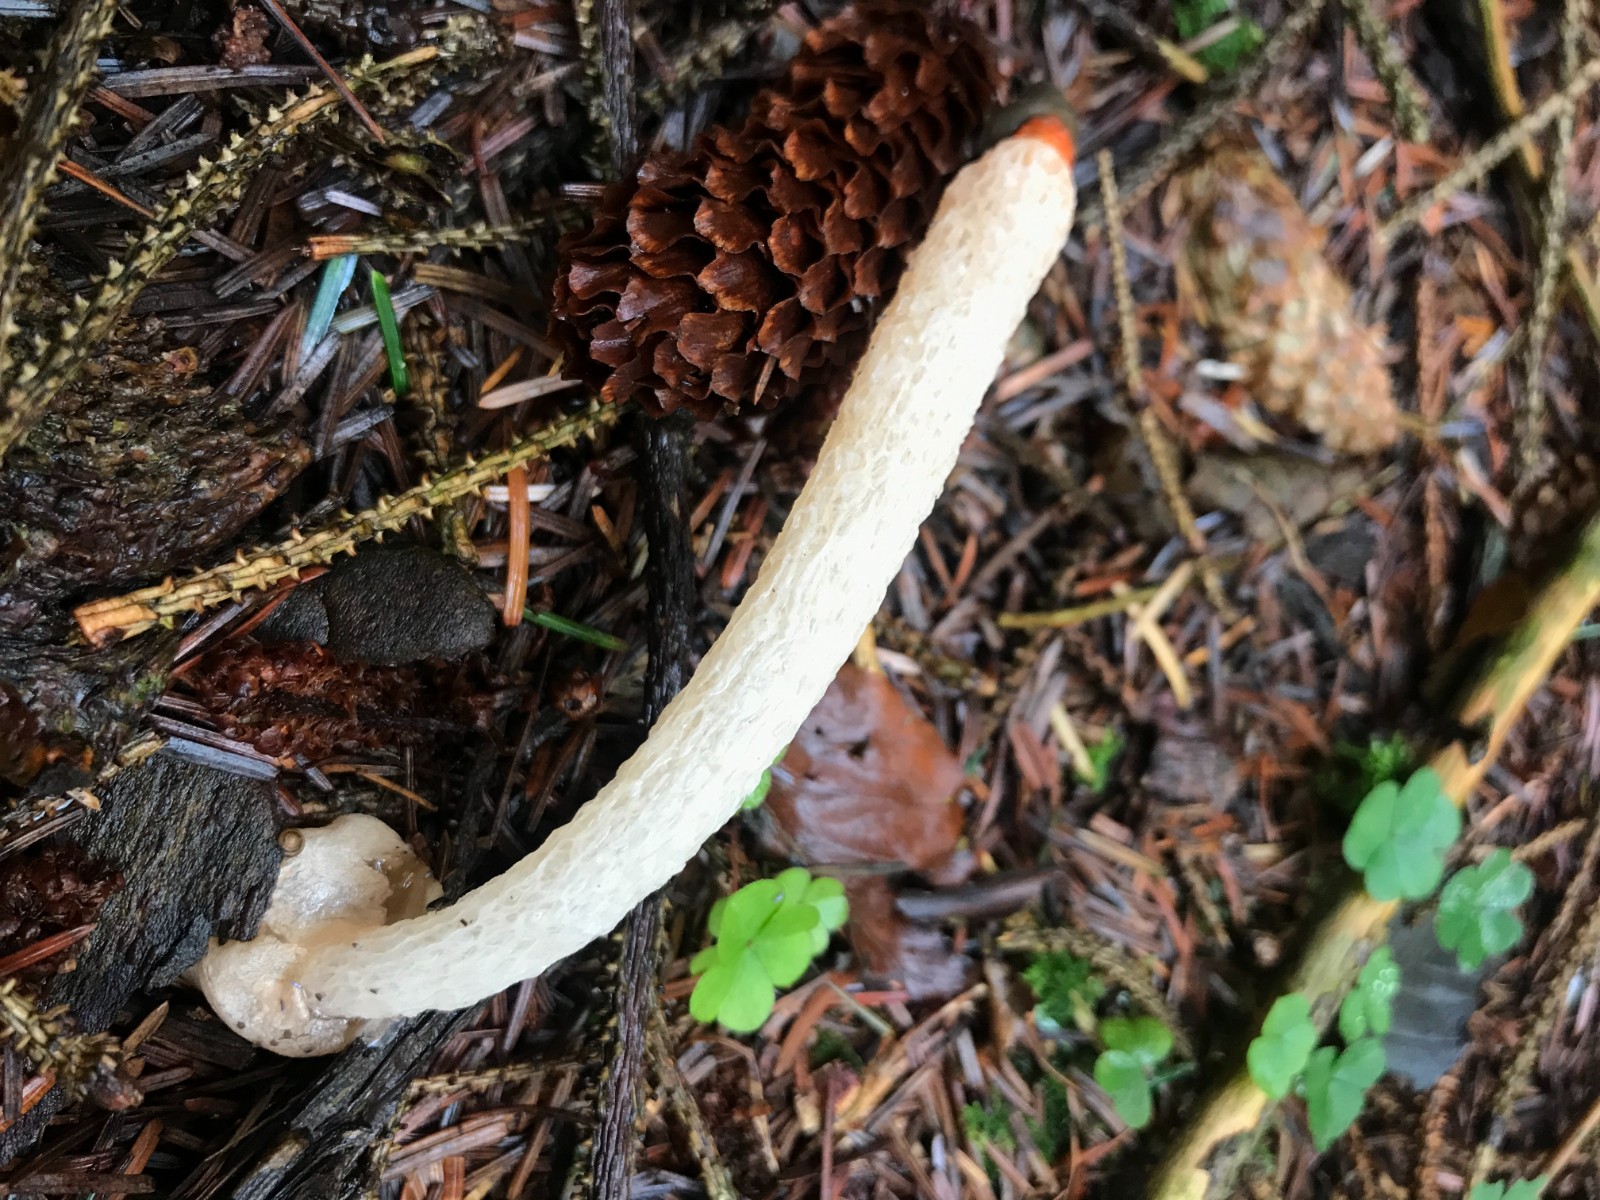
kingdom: Fungi
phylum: Basidiomycota
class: Agaricomycetes
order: Phallales
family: Phallaceae
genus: Mutinus
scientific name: Mutinus caninus
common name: hunde-stinksvamp
